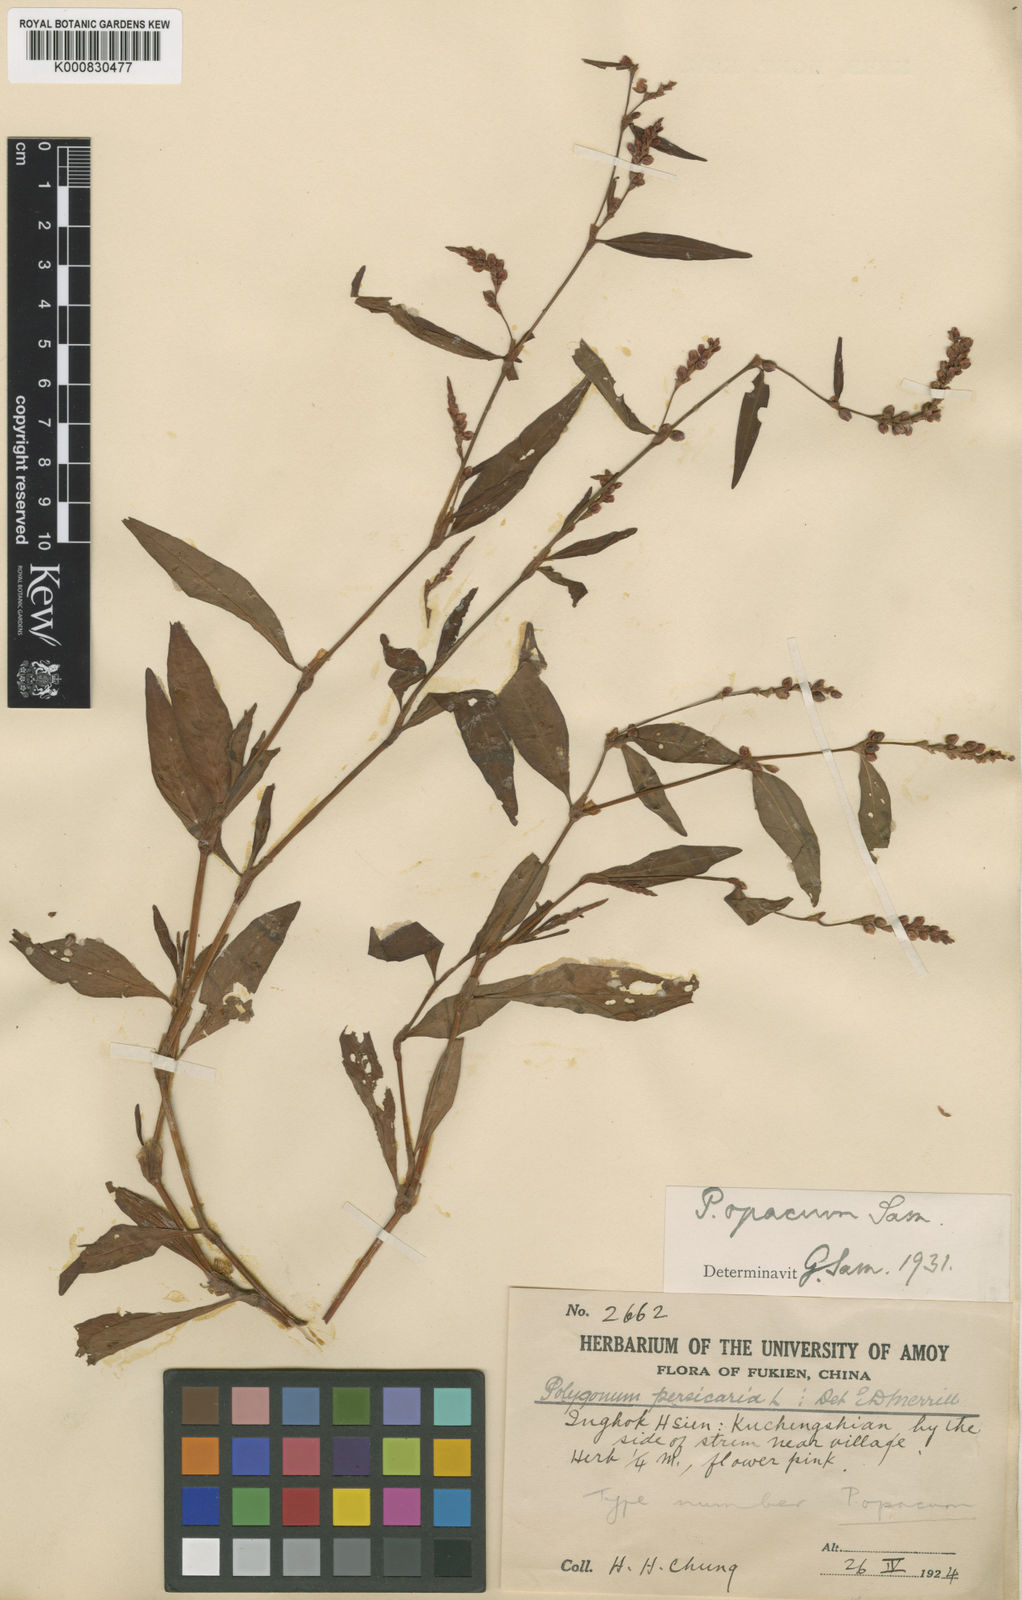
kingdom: Plantae
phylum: Tracheophyta
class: Magnoliopsida
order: Caryophyllales
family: Polygonaceae
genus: Persicaria
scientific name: Persicaria maculosa
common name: Redshank
